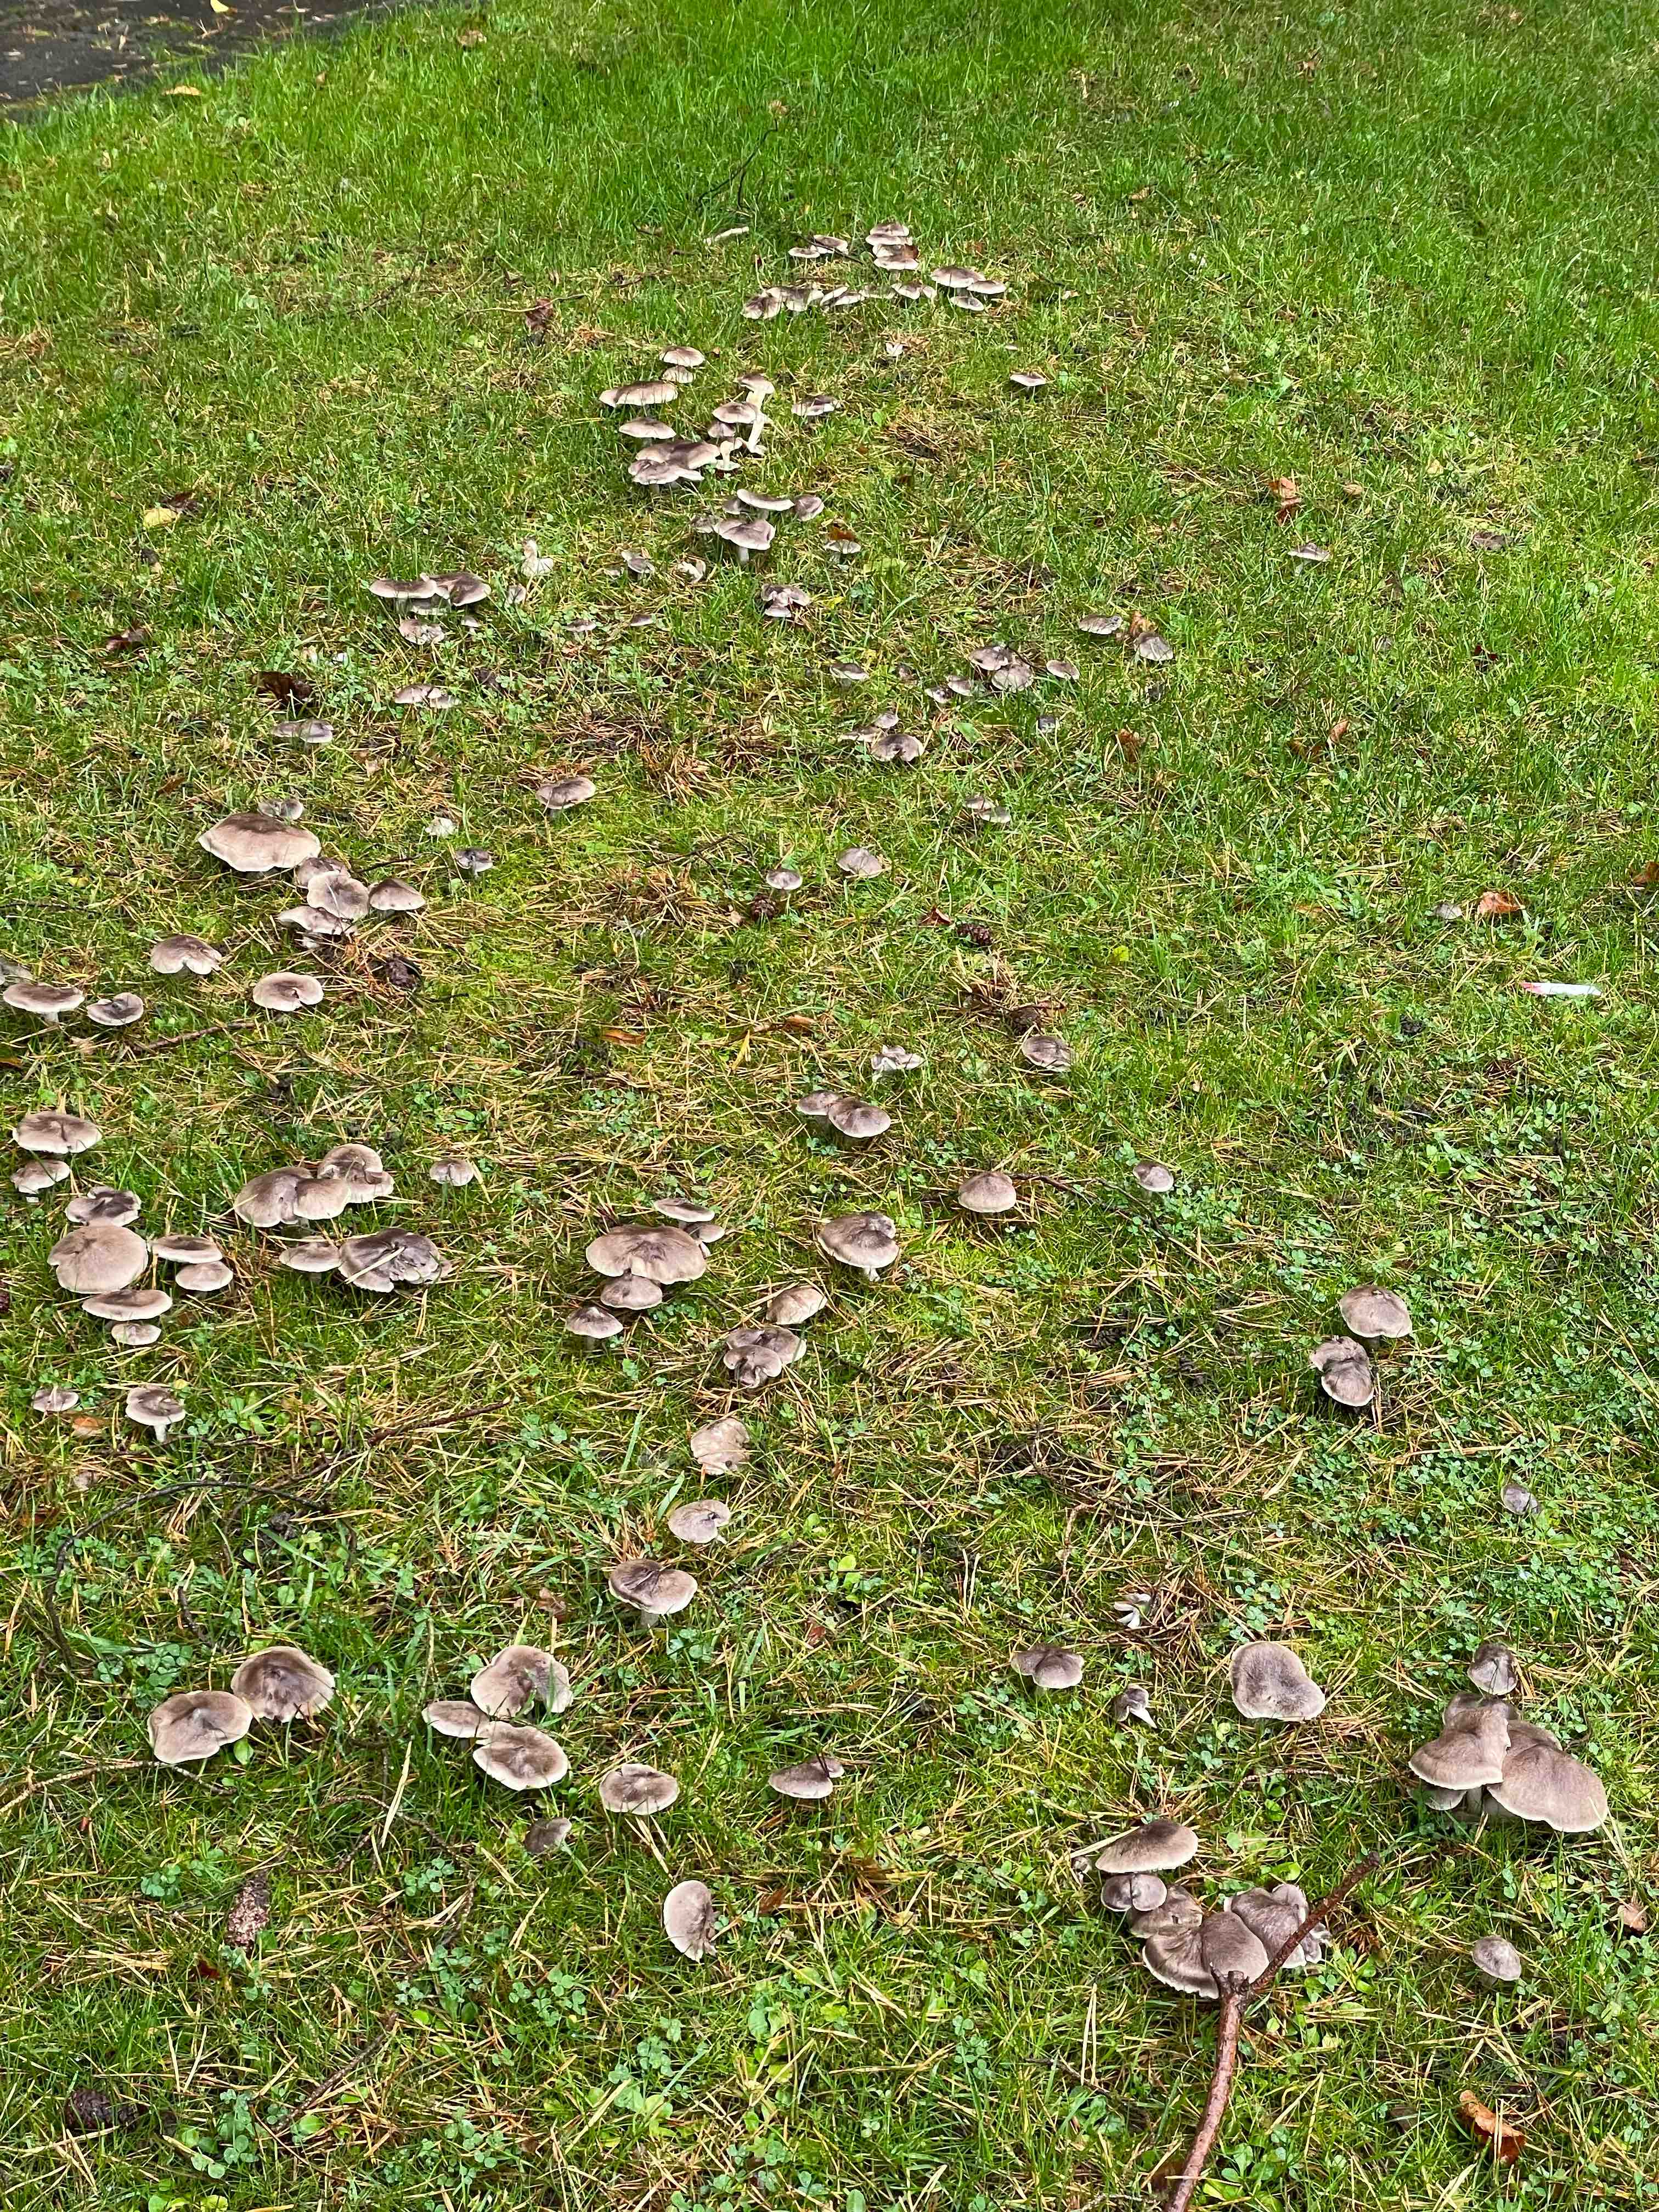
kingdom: Fungi
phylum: Basidiomycota
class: Agaricomycetes
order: Agaricales
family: Tricholomataceae
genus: Tricholoma
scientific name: Tricholoma terreum
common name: jordfarvet ridderhat
